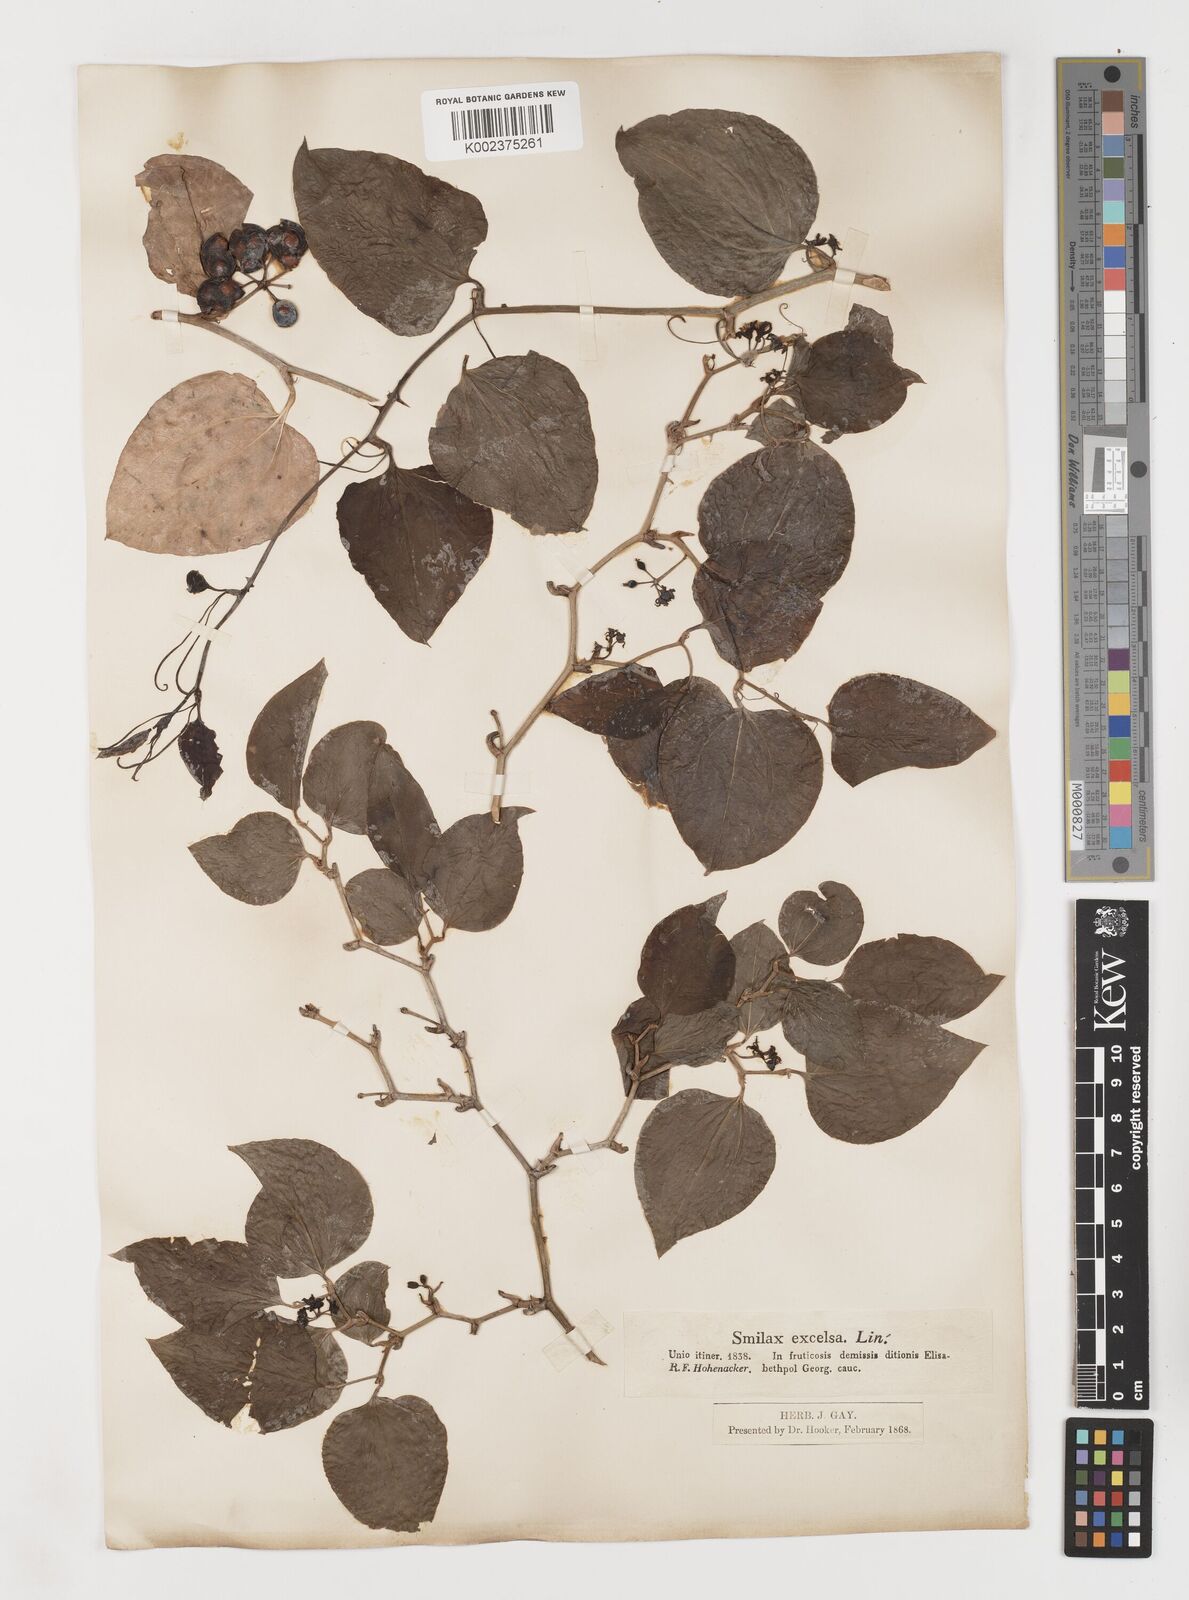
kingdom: Plantae
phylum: Tracheophyta
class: Liliopsida
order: Liliales
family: Smilacaceae
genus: Smilax
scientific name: Smilax excelsa
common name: Larger smilax
